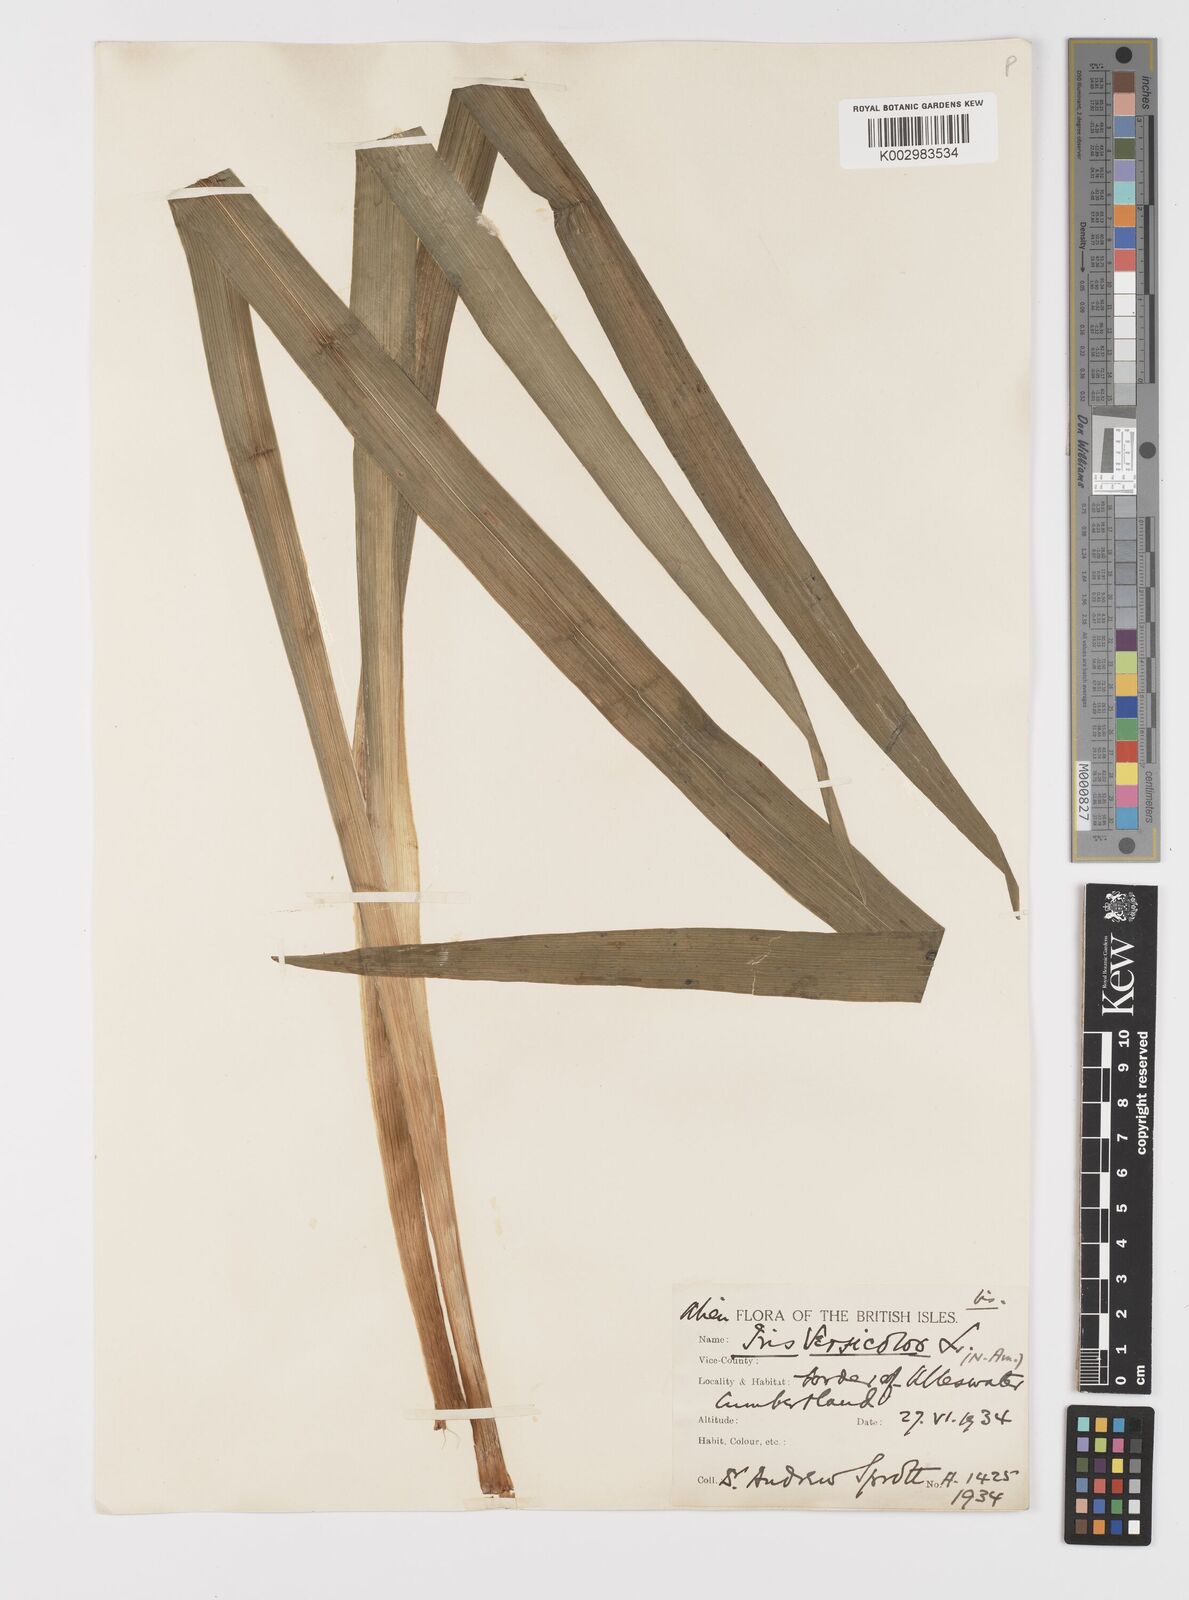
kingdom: Plantae
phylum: Tracheophyta
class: Liliopsida
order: Asparagales
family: Iridaceae
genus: Iris
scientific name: Iris versicolor
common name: Purple iris
